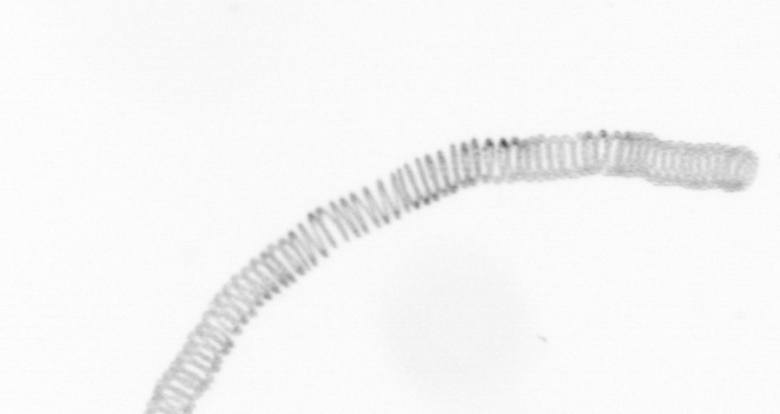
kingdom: Chromista
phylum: Ochrophyta
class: Bacillariophyceae
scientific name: Bacillariophyceae
